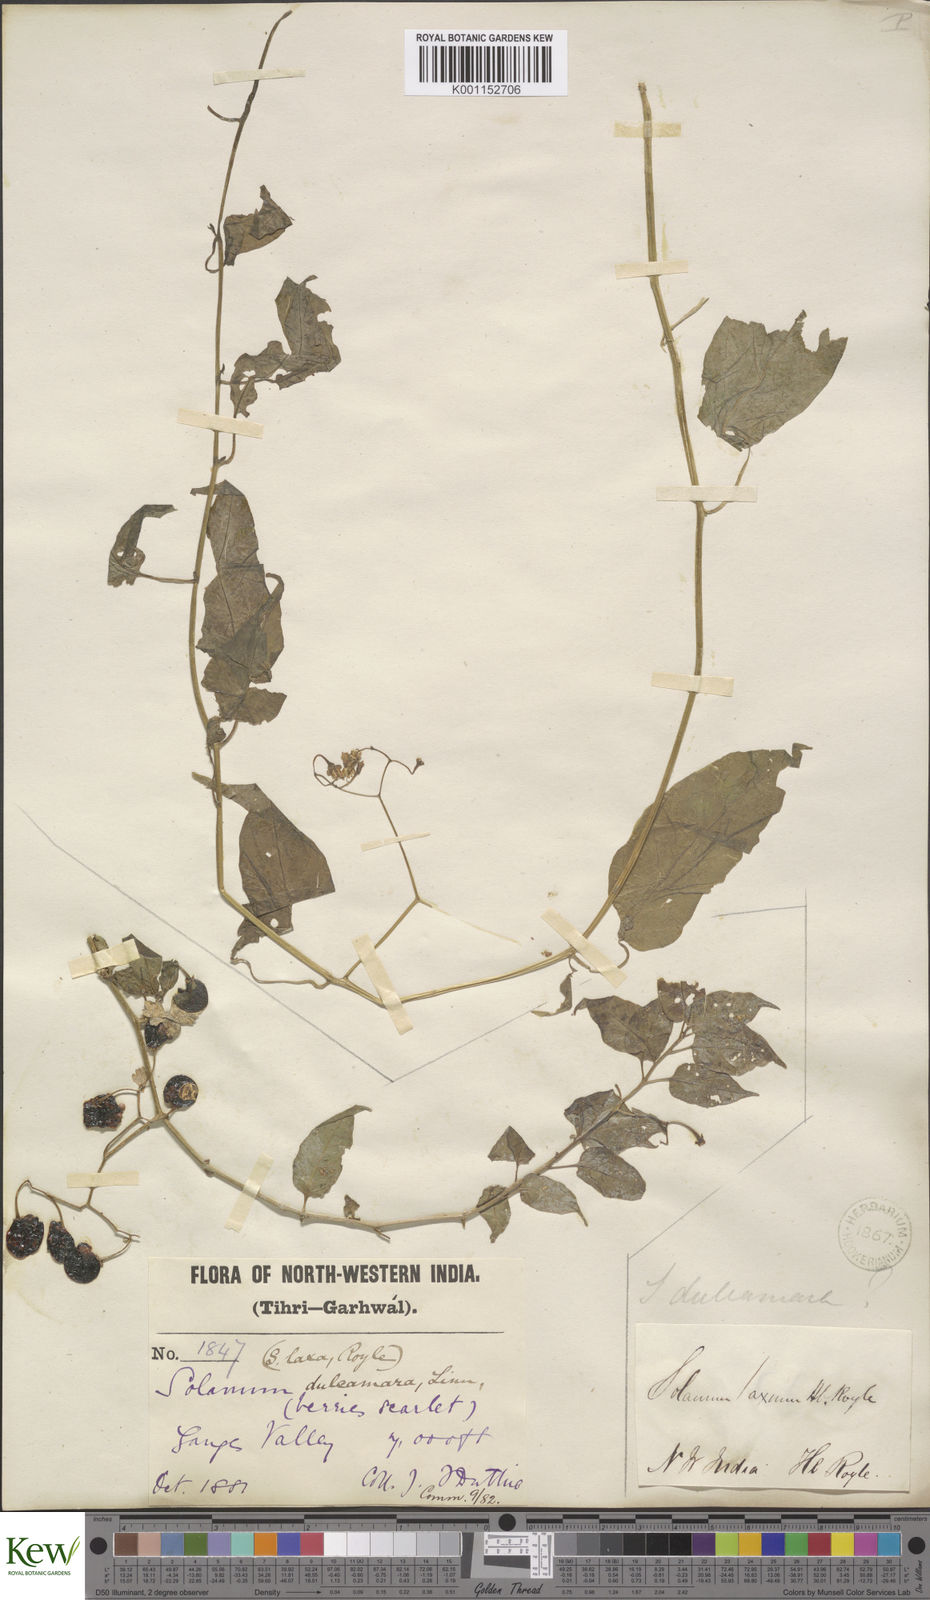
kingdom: Plantae
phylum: Tracheophyta
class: Magnoliopsida
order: Solanales
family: Solanaceae
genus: Solanum
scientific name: Solanum dulcamara
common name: Climbing nightshade
